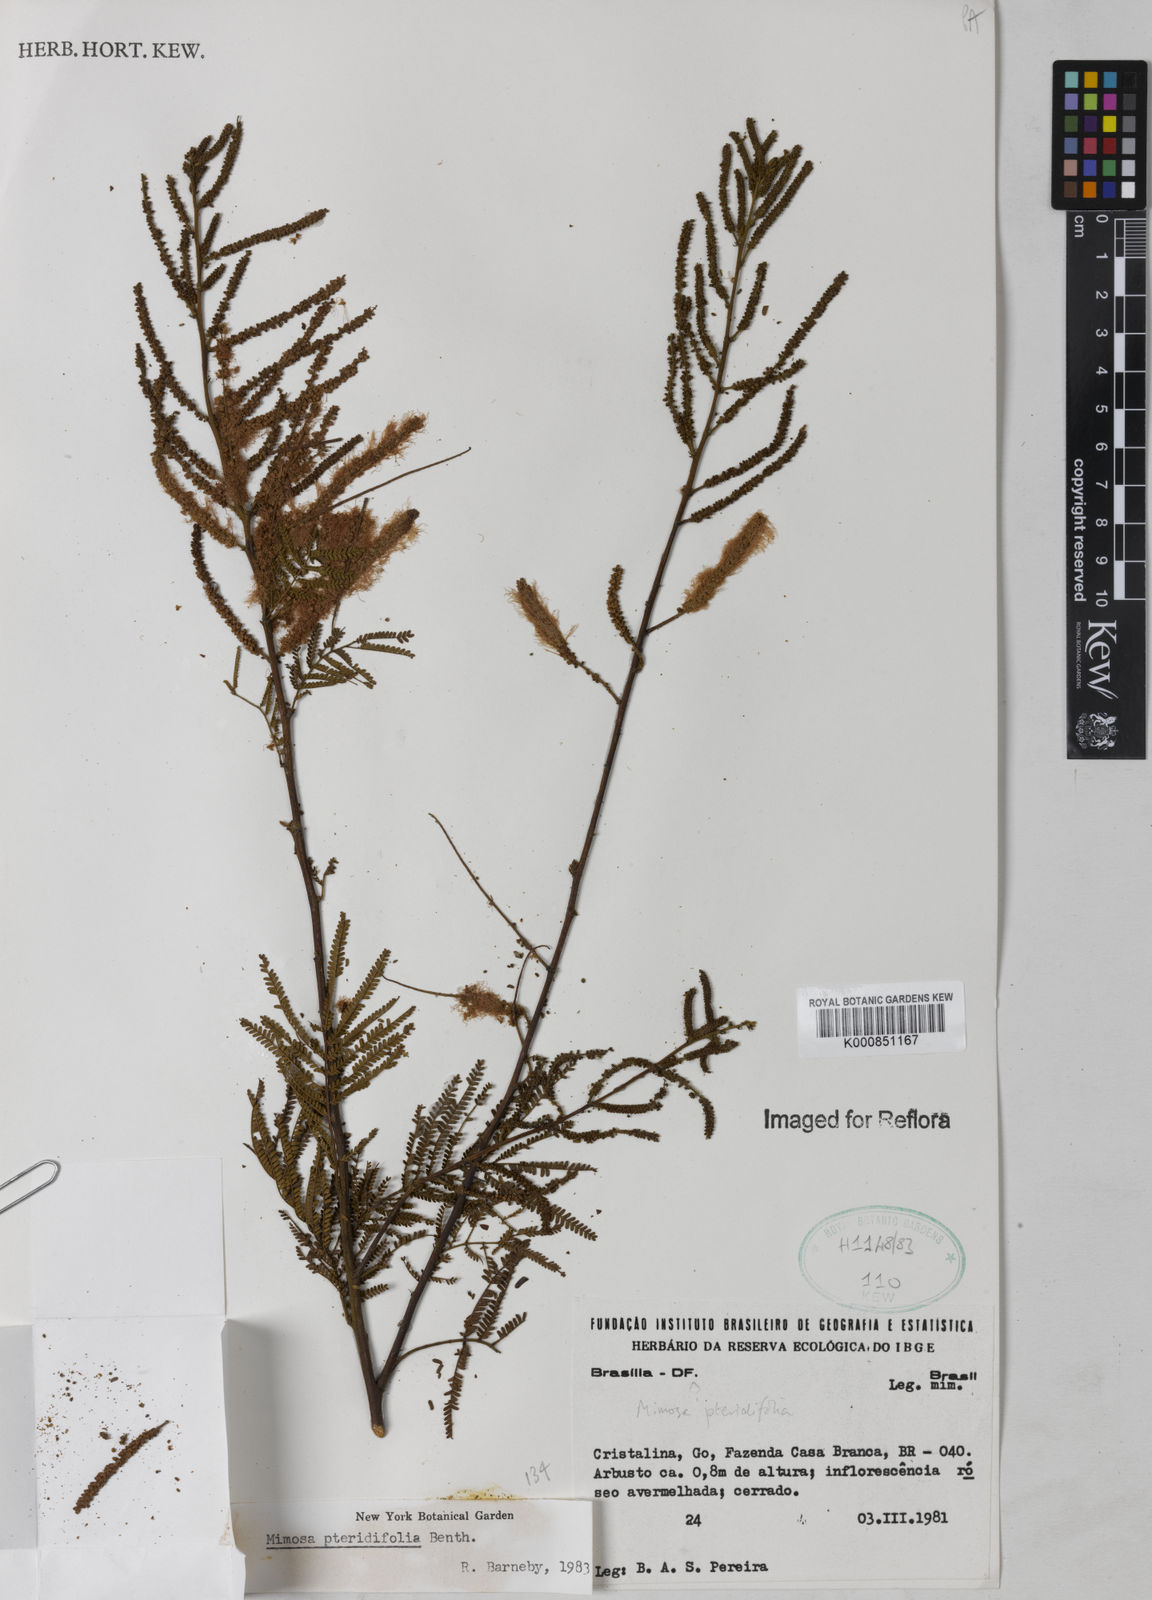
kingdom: Plantae
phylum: Tracheophyta
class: Magnoliopsida
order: Fabales
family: Fabaceae
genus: Mimosa
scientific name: Mimosa pteridifolia
